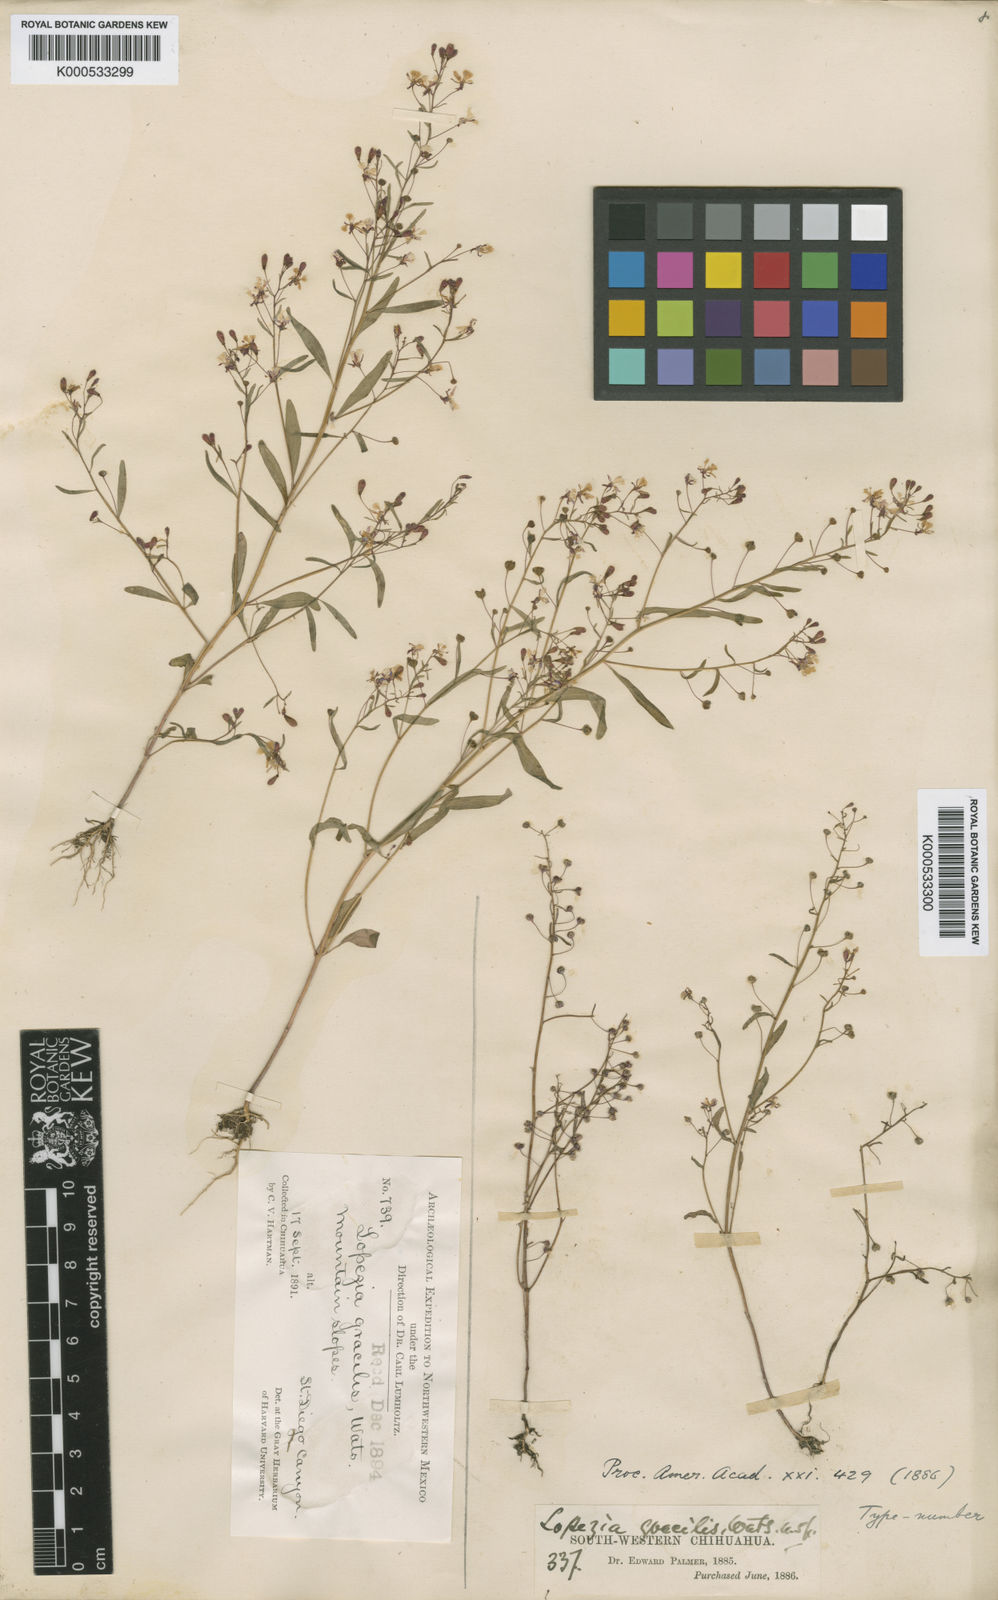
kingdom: Plantae
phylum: Tracheophyta
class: Magnoliopsida
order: Myrtales
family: Onagraceae
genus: Lopezia
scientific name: Lopezia gracilis
